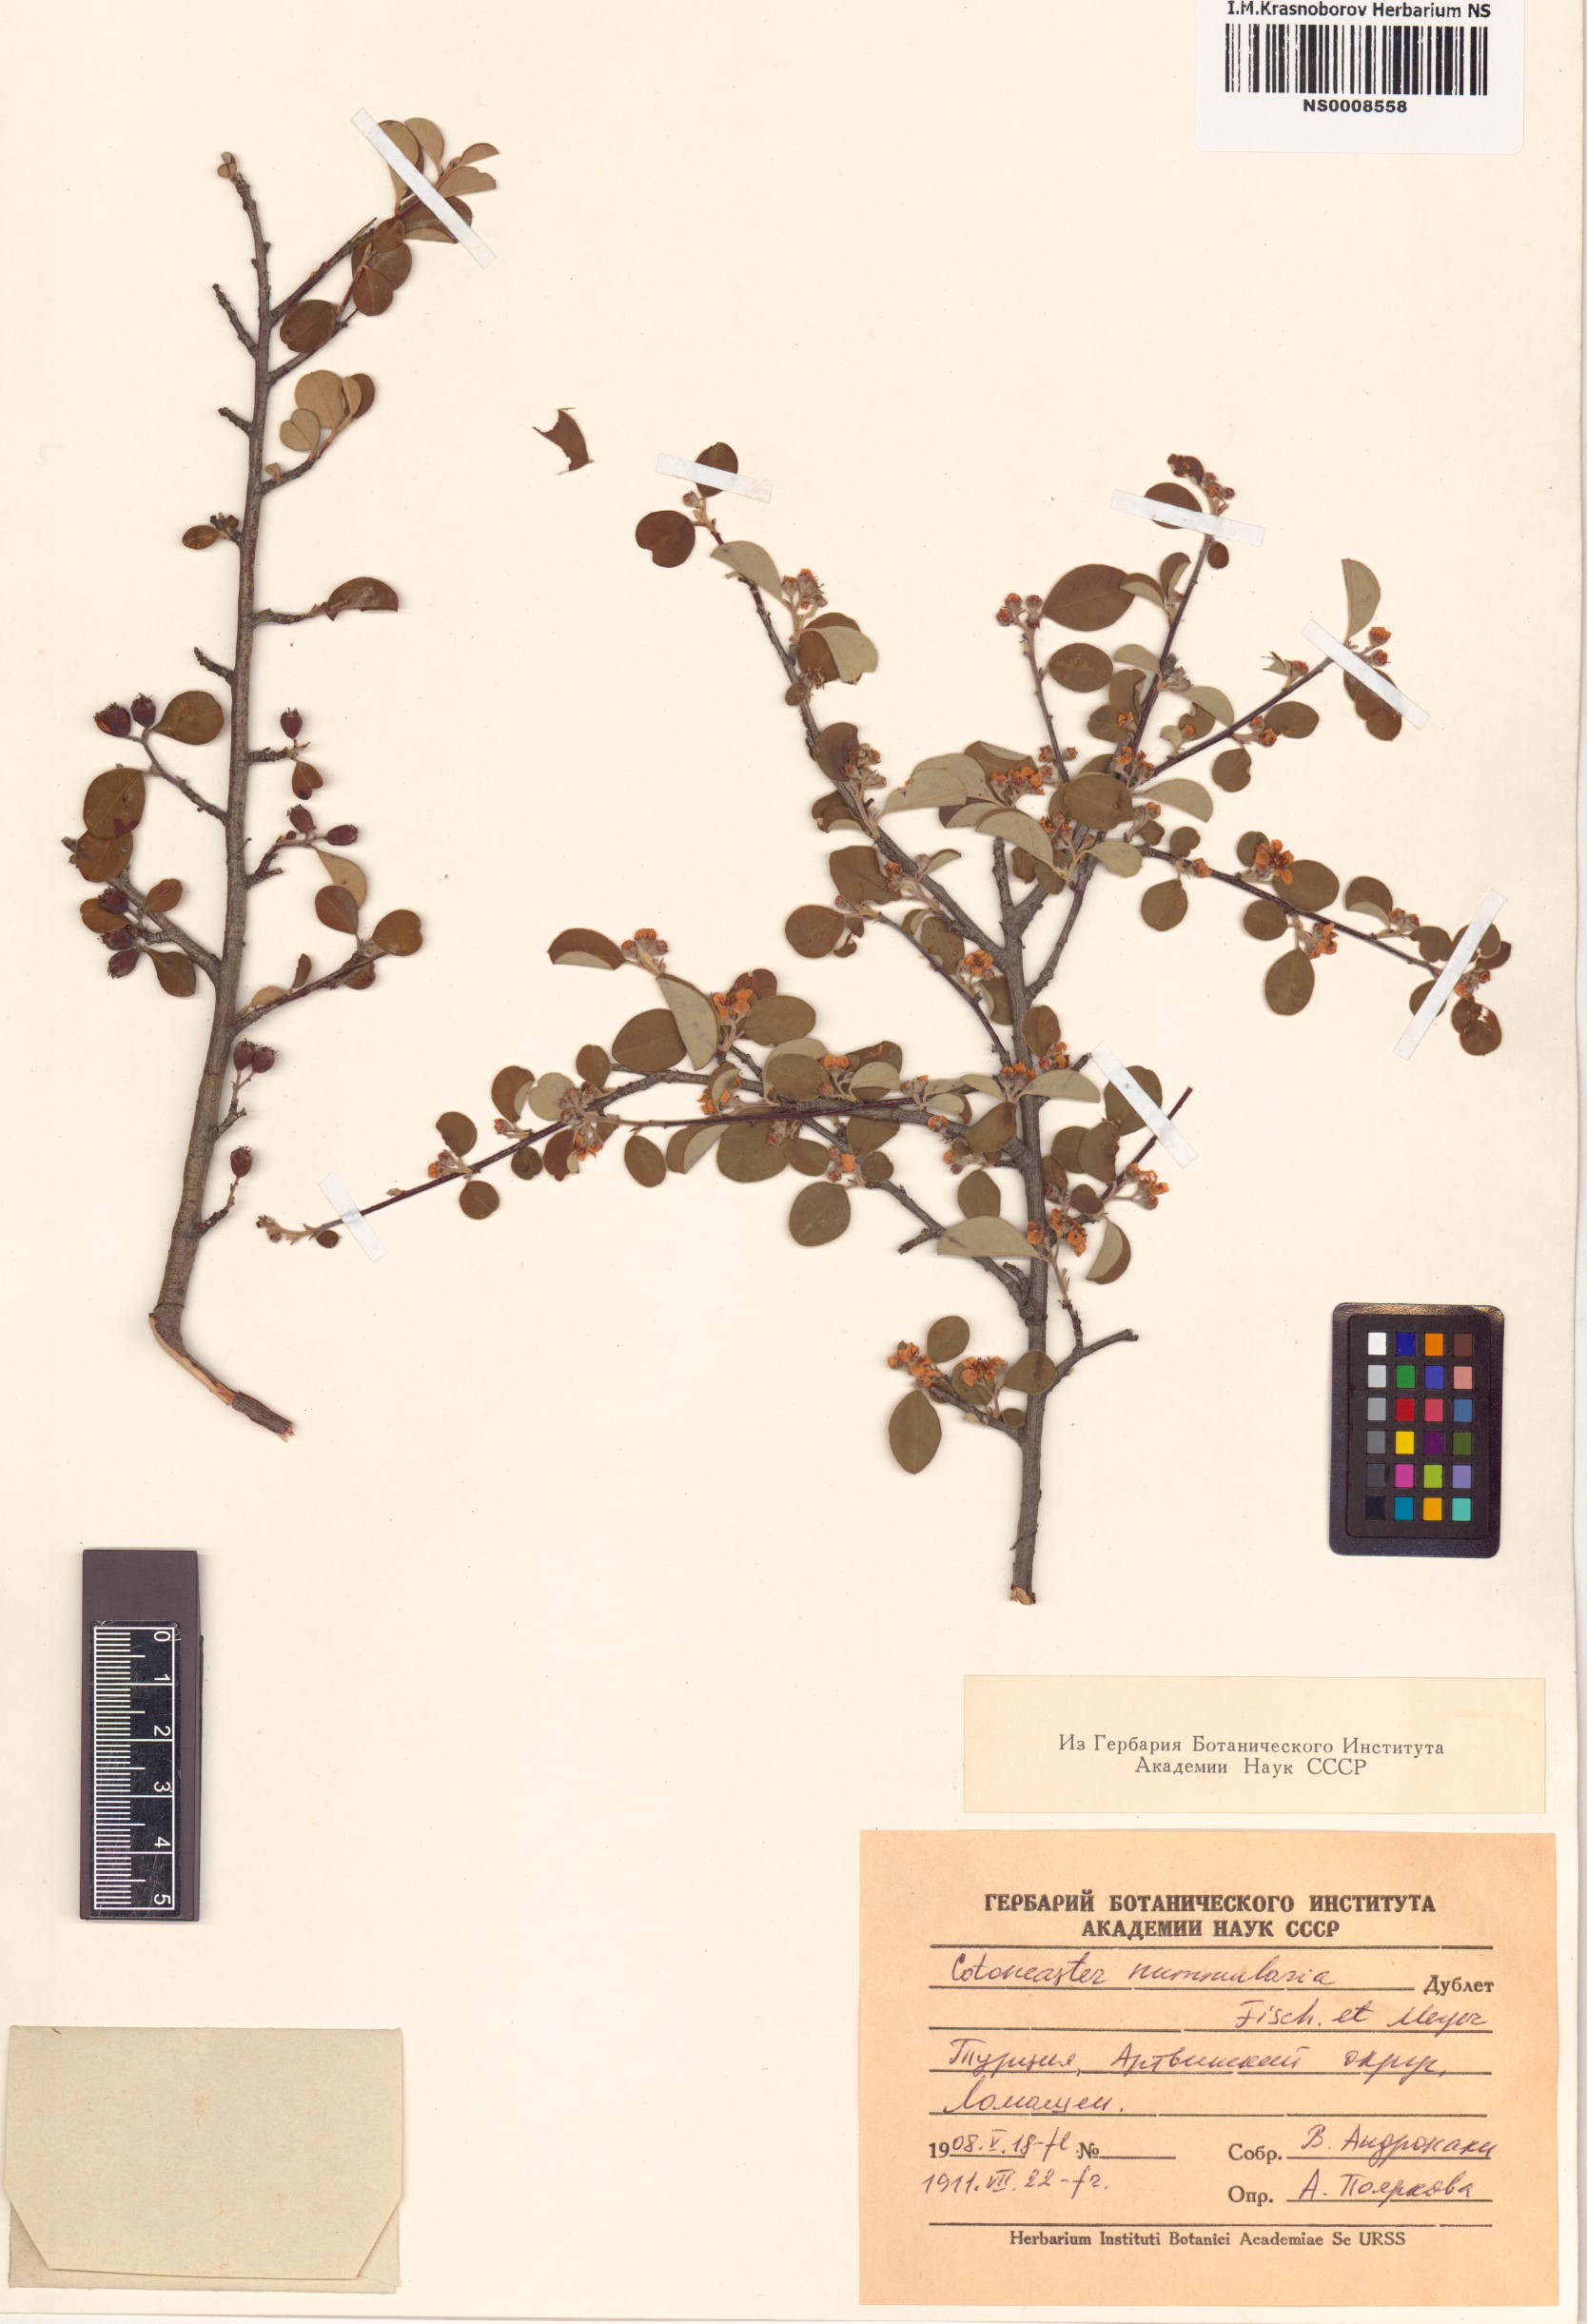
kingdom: Plantae
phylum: Tracheophyta
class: Magnoliopsida
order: Rosales
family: Rosaceae
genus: Cotoneaster
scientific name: Cotoneaster affinis
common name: Purpleberry cotoneaster
